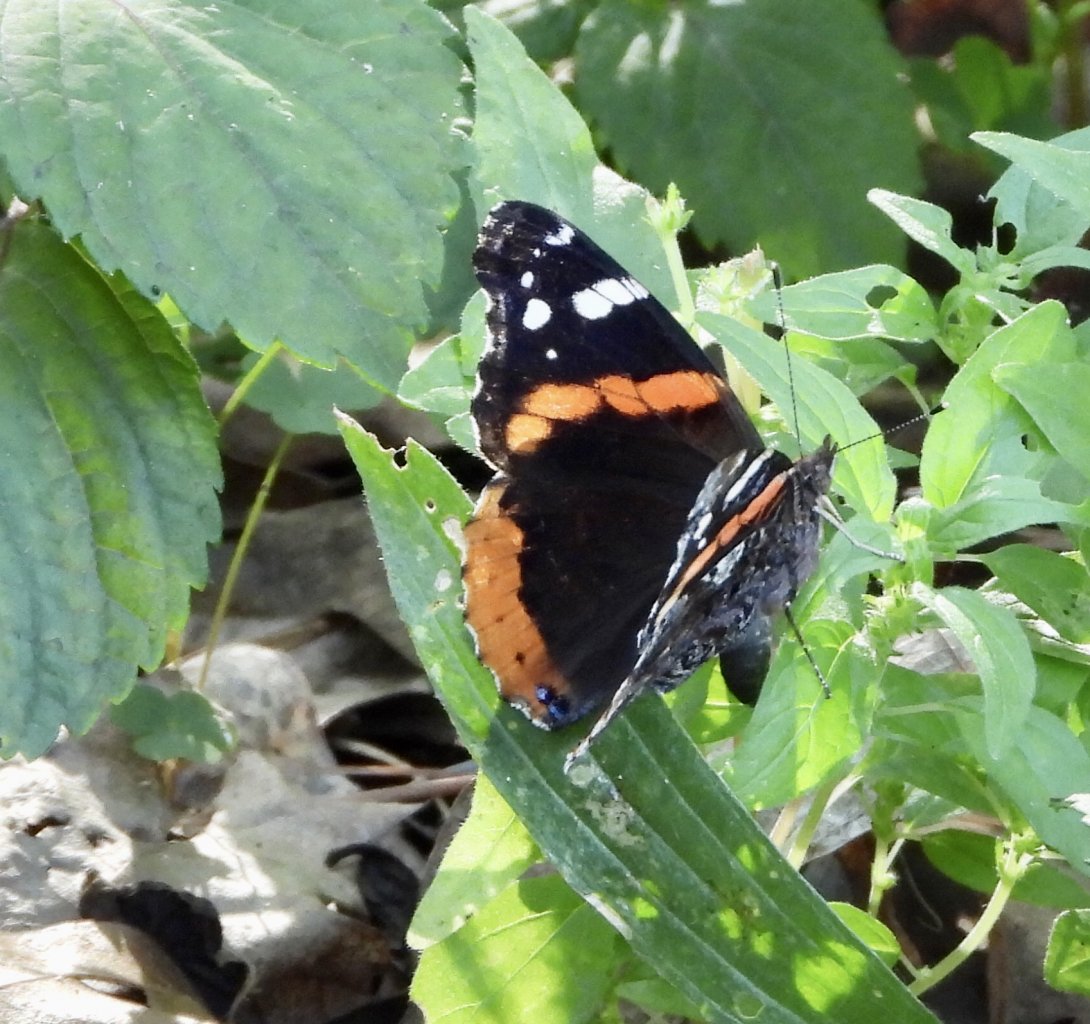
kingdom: Animalia
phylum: Arthropoda
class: Insecta
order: Lepidoptera
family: Nymphalidae
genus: Vanessa
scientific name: Vanessa atalanta
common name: Red Admiral
